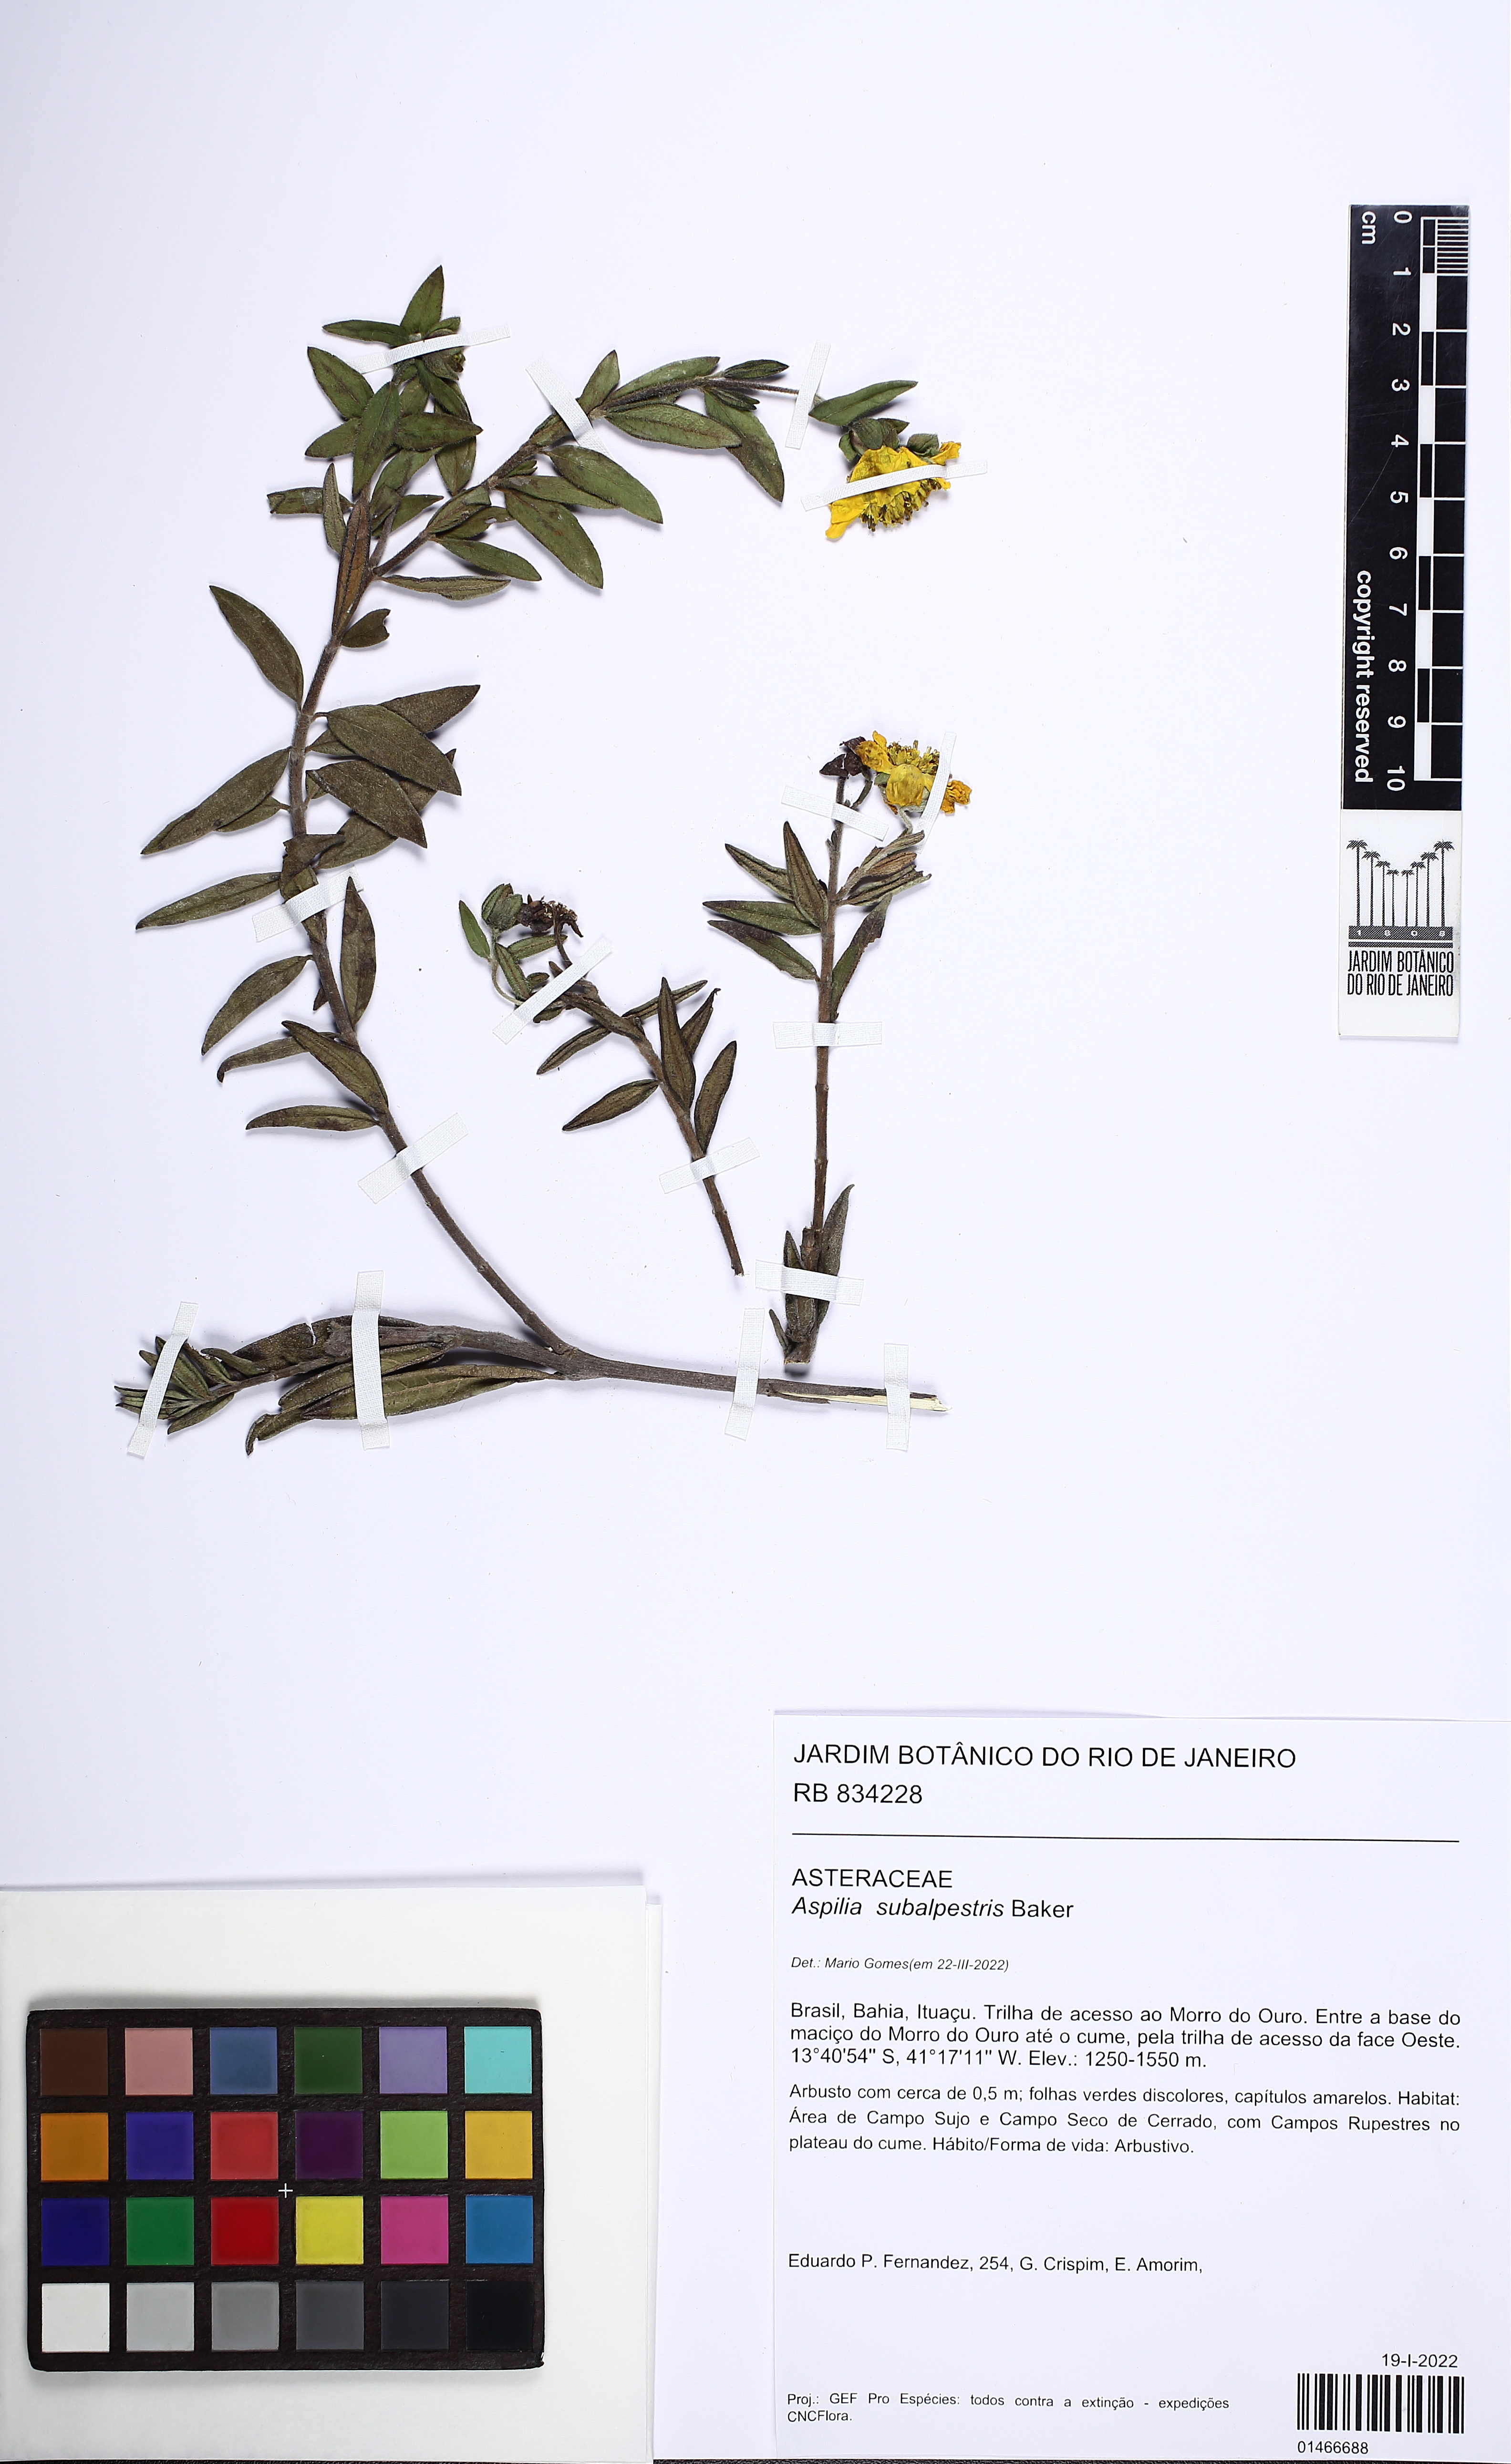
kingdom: Plantae
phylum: Tracheophyta
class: Magnoliopsida
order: Asterales
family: Asteraceae
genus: Wedelia
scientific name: Wedelia subalpestris
